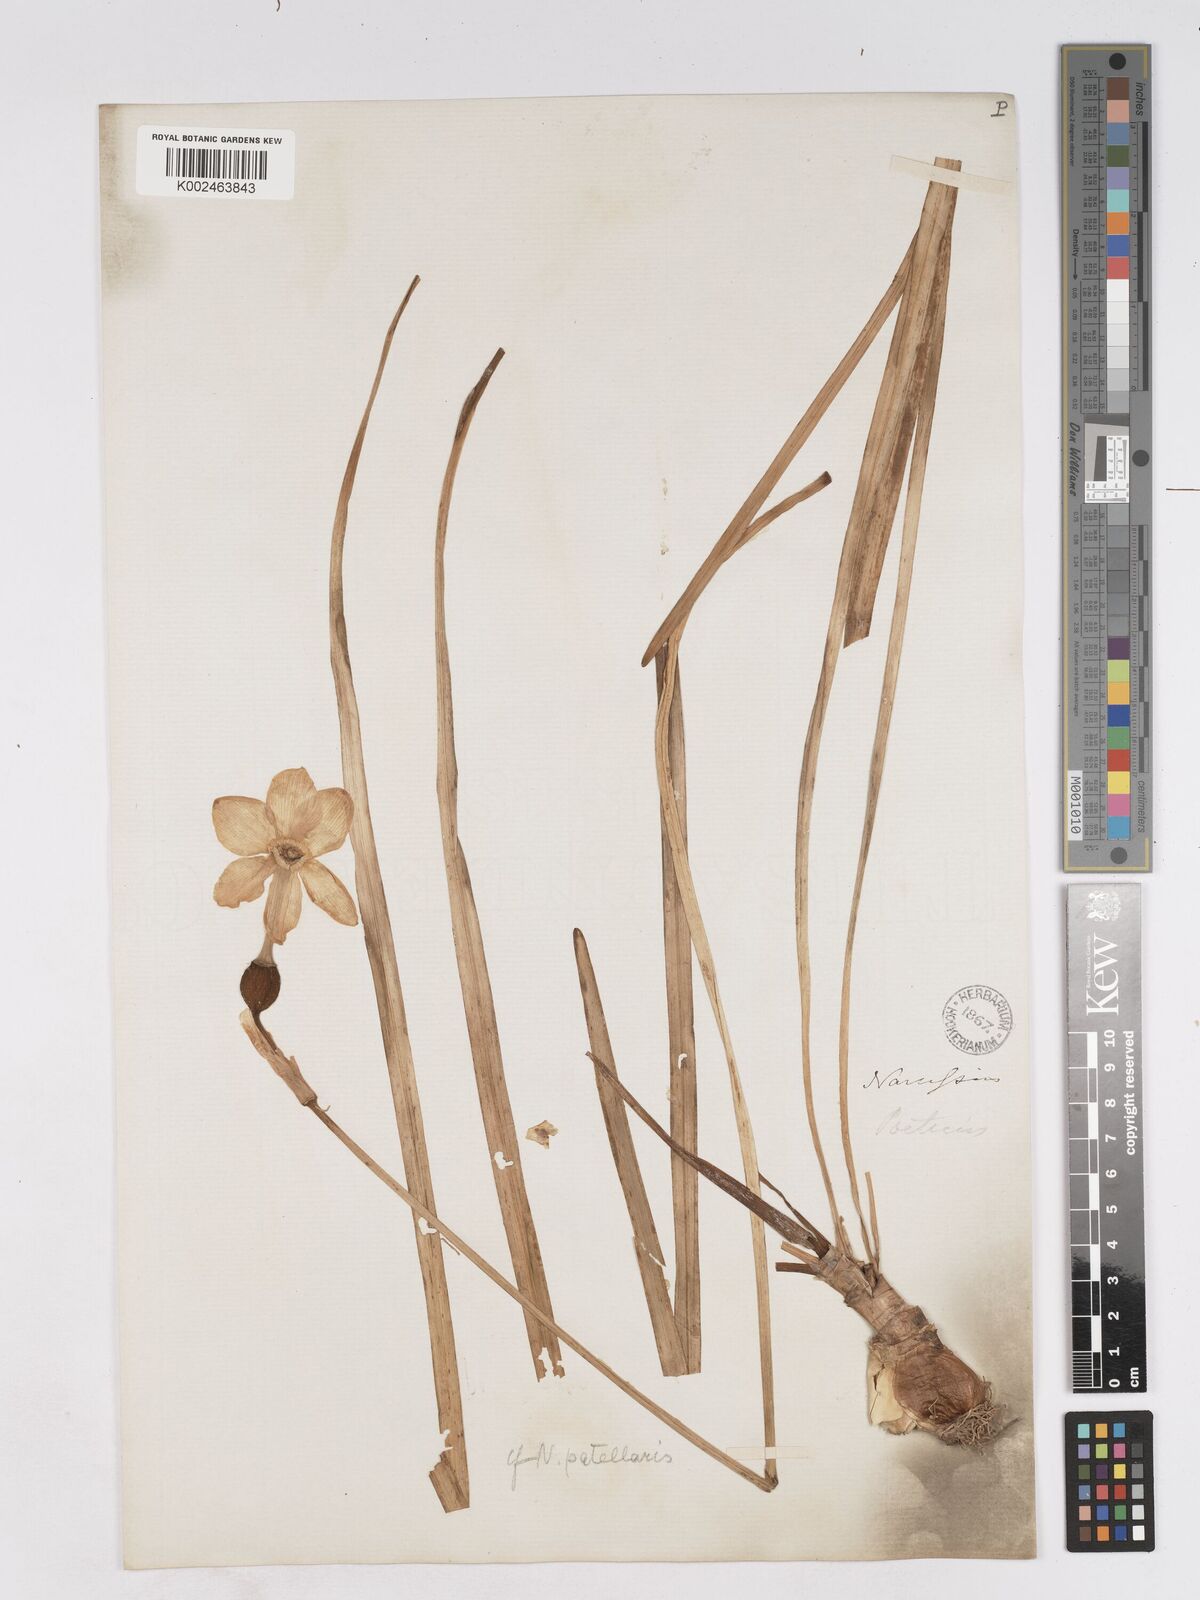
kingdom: Plantae
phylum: Tracheophyta
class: Liliopsida
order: Asparagales
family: Amaryllidaceae
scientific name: Amaryllidaceae
